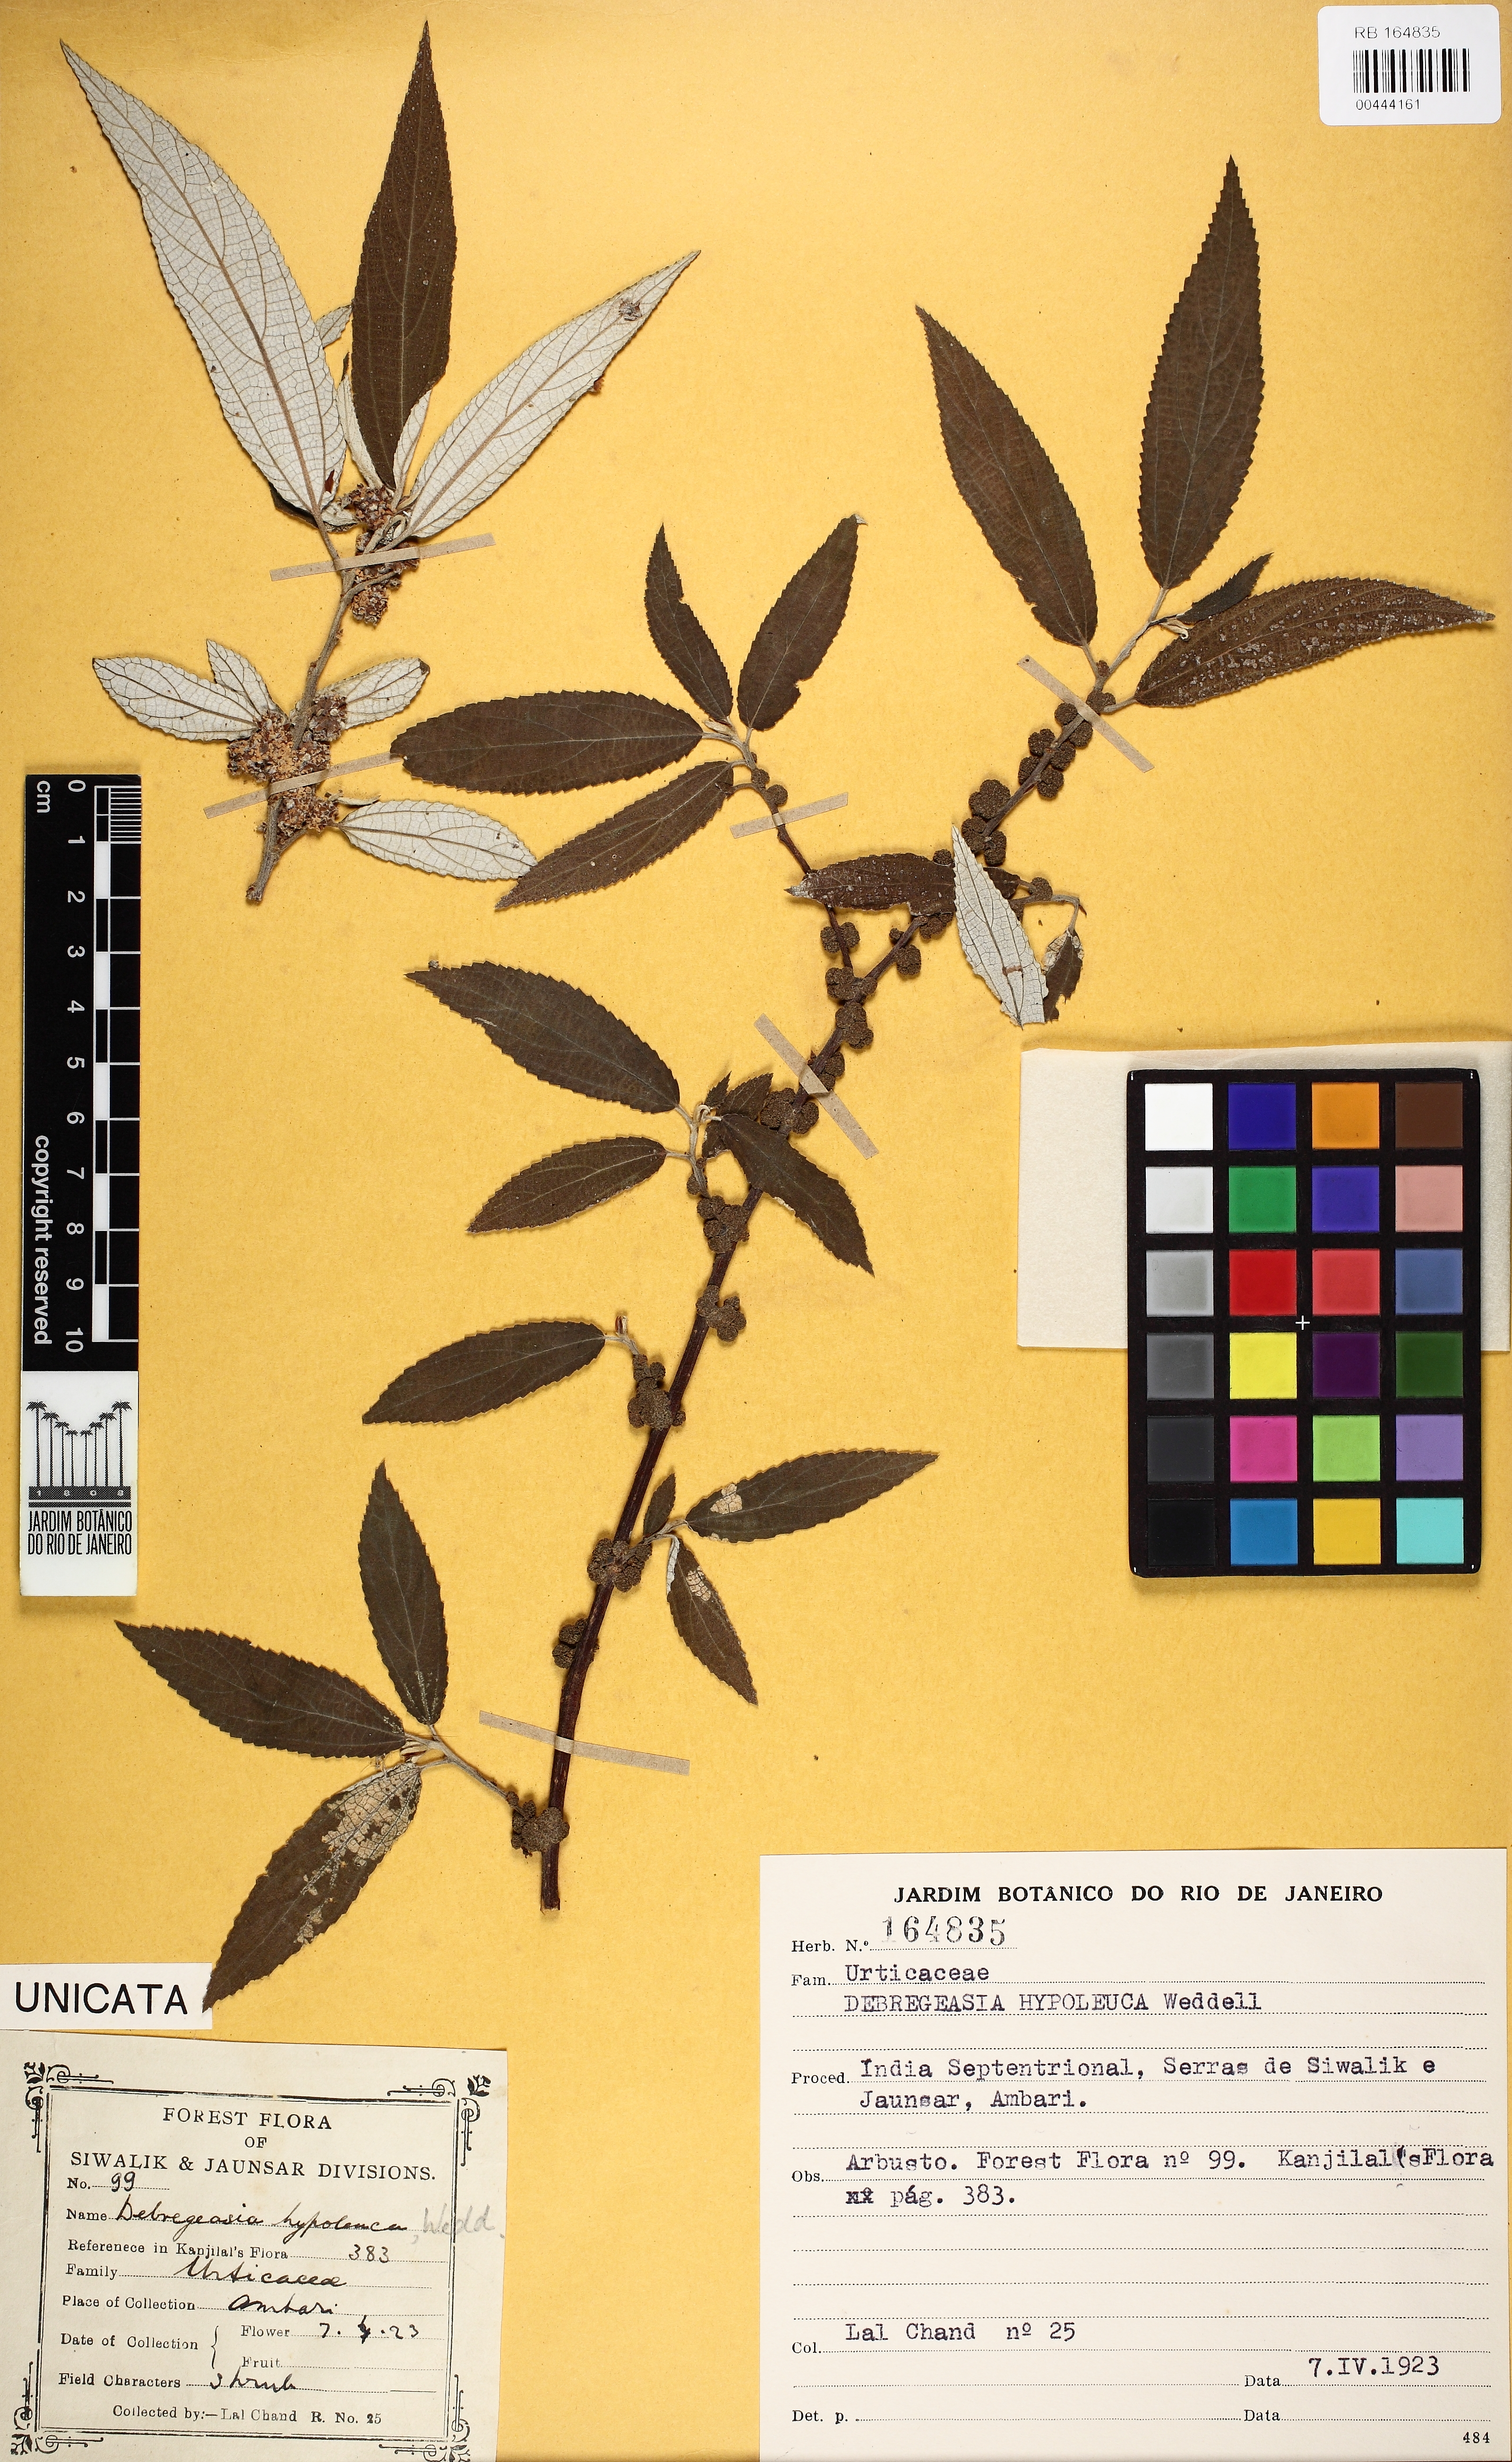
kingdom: Plantae
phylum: Tracheophyta
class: Magnoliopsida
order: Rosales
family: Urticaceae
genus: Debregeasia
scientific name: Debregeasia saeneb
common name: Himalayan wild rhea
